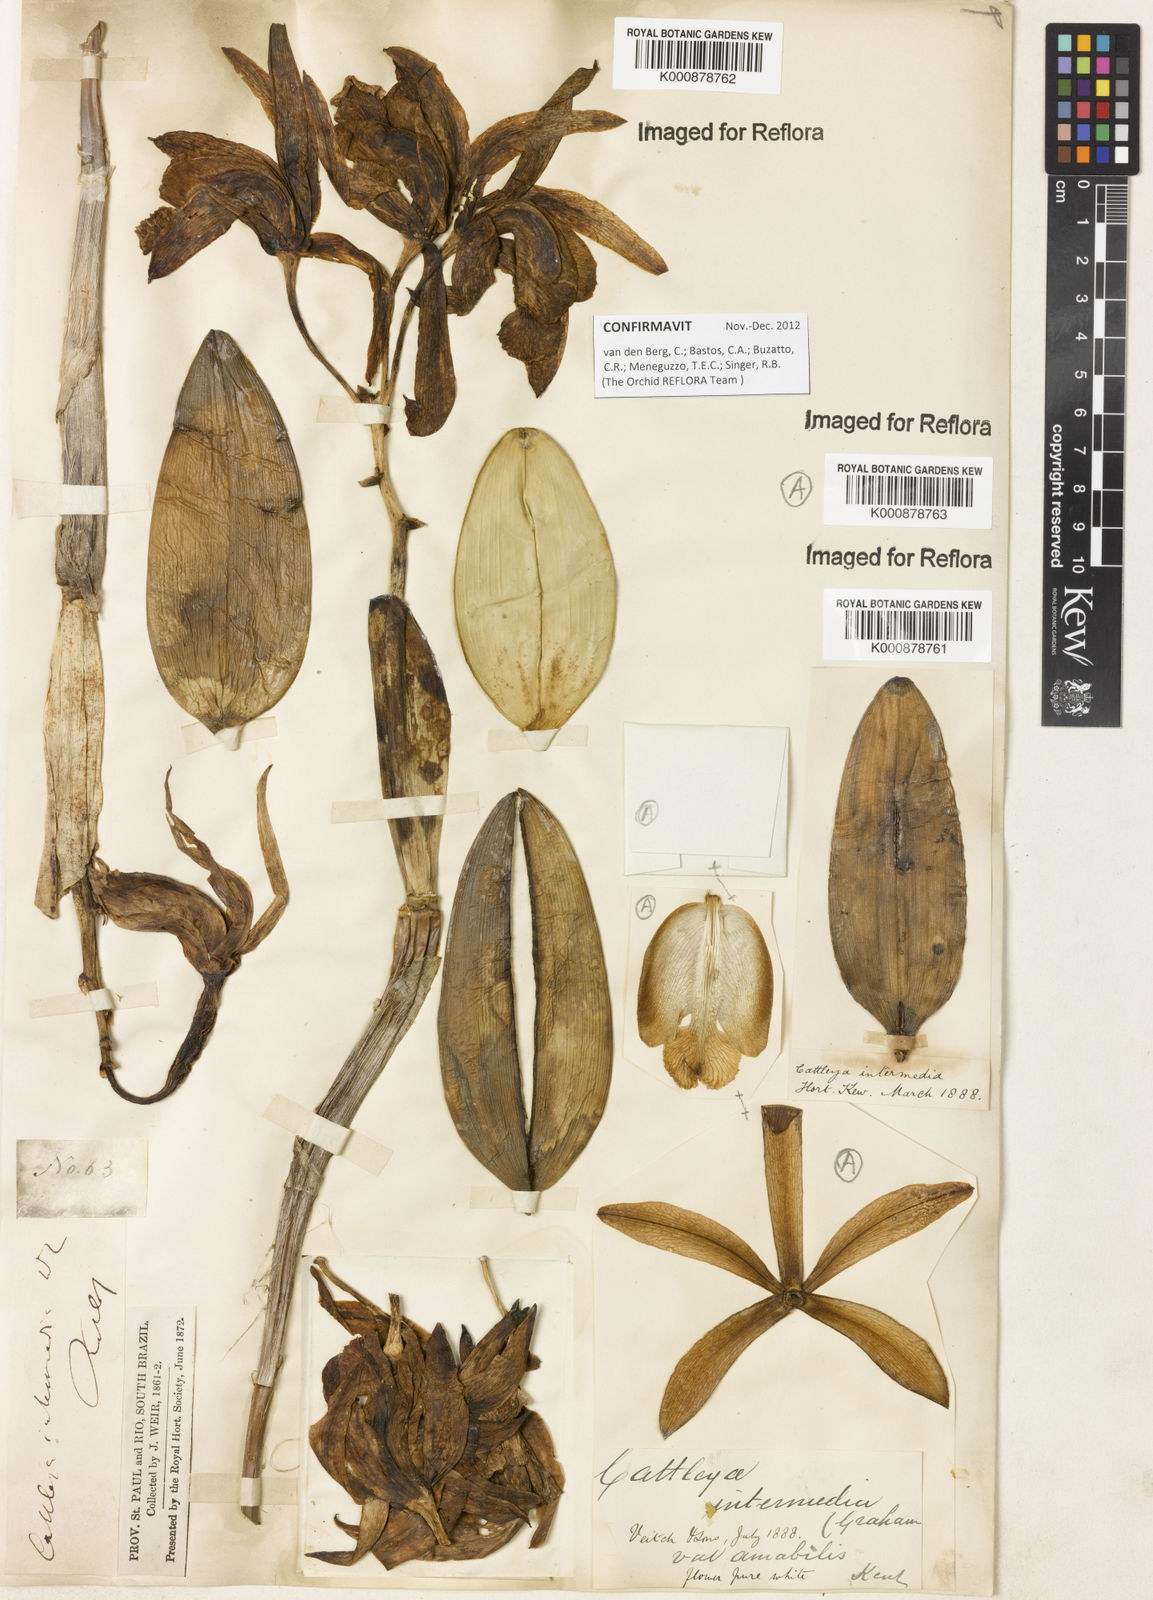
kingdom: Plantae
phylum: Tracheophyta
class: Liliopsida
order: Asparagales
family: Orchidaceae
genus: Cattleya
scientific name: Cattleya intermedia
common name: Intermediate cattleya
